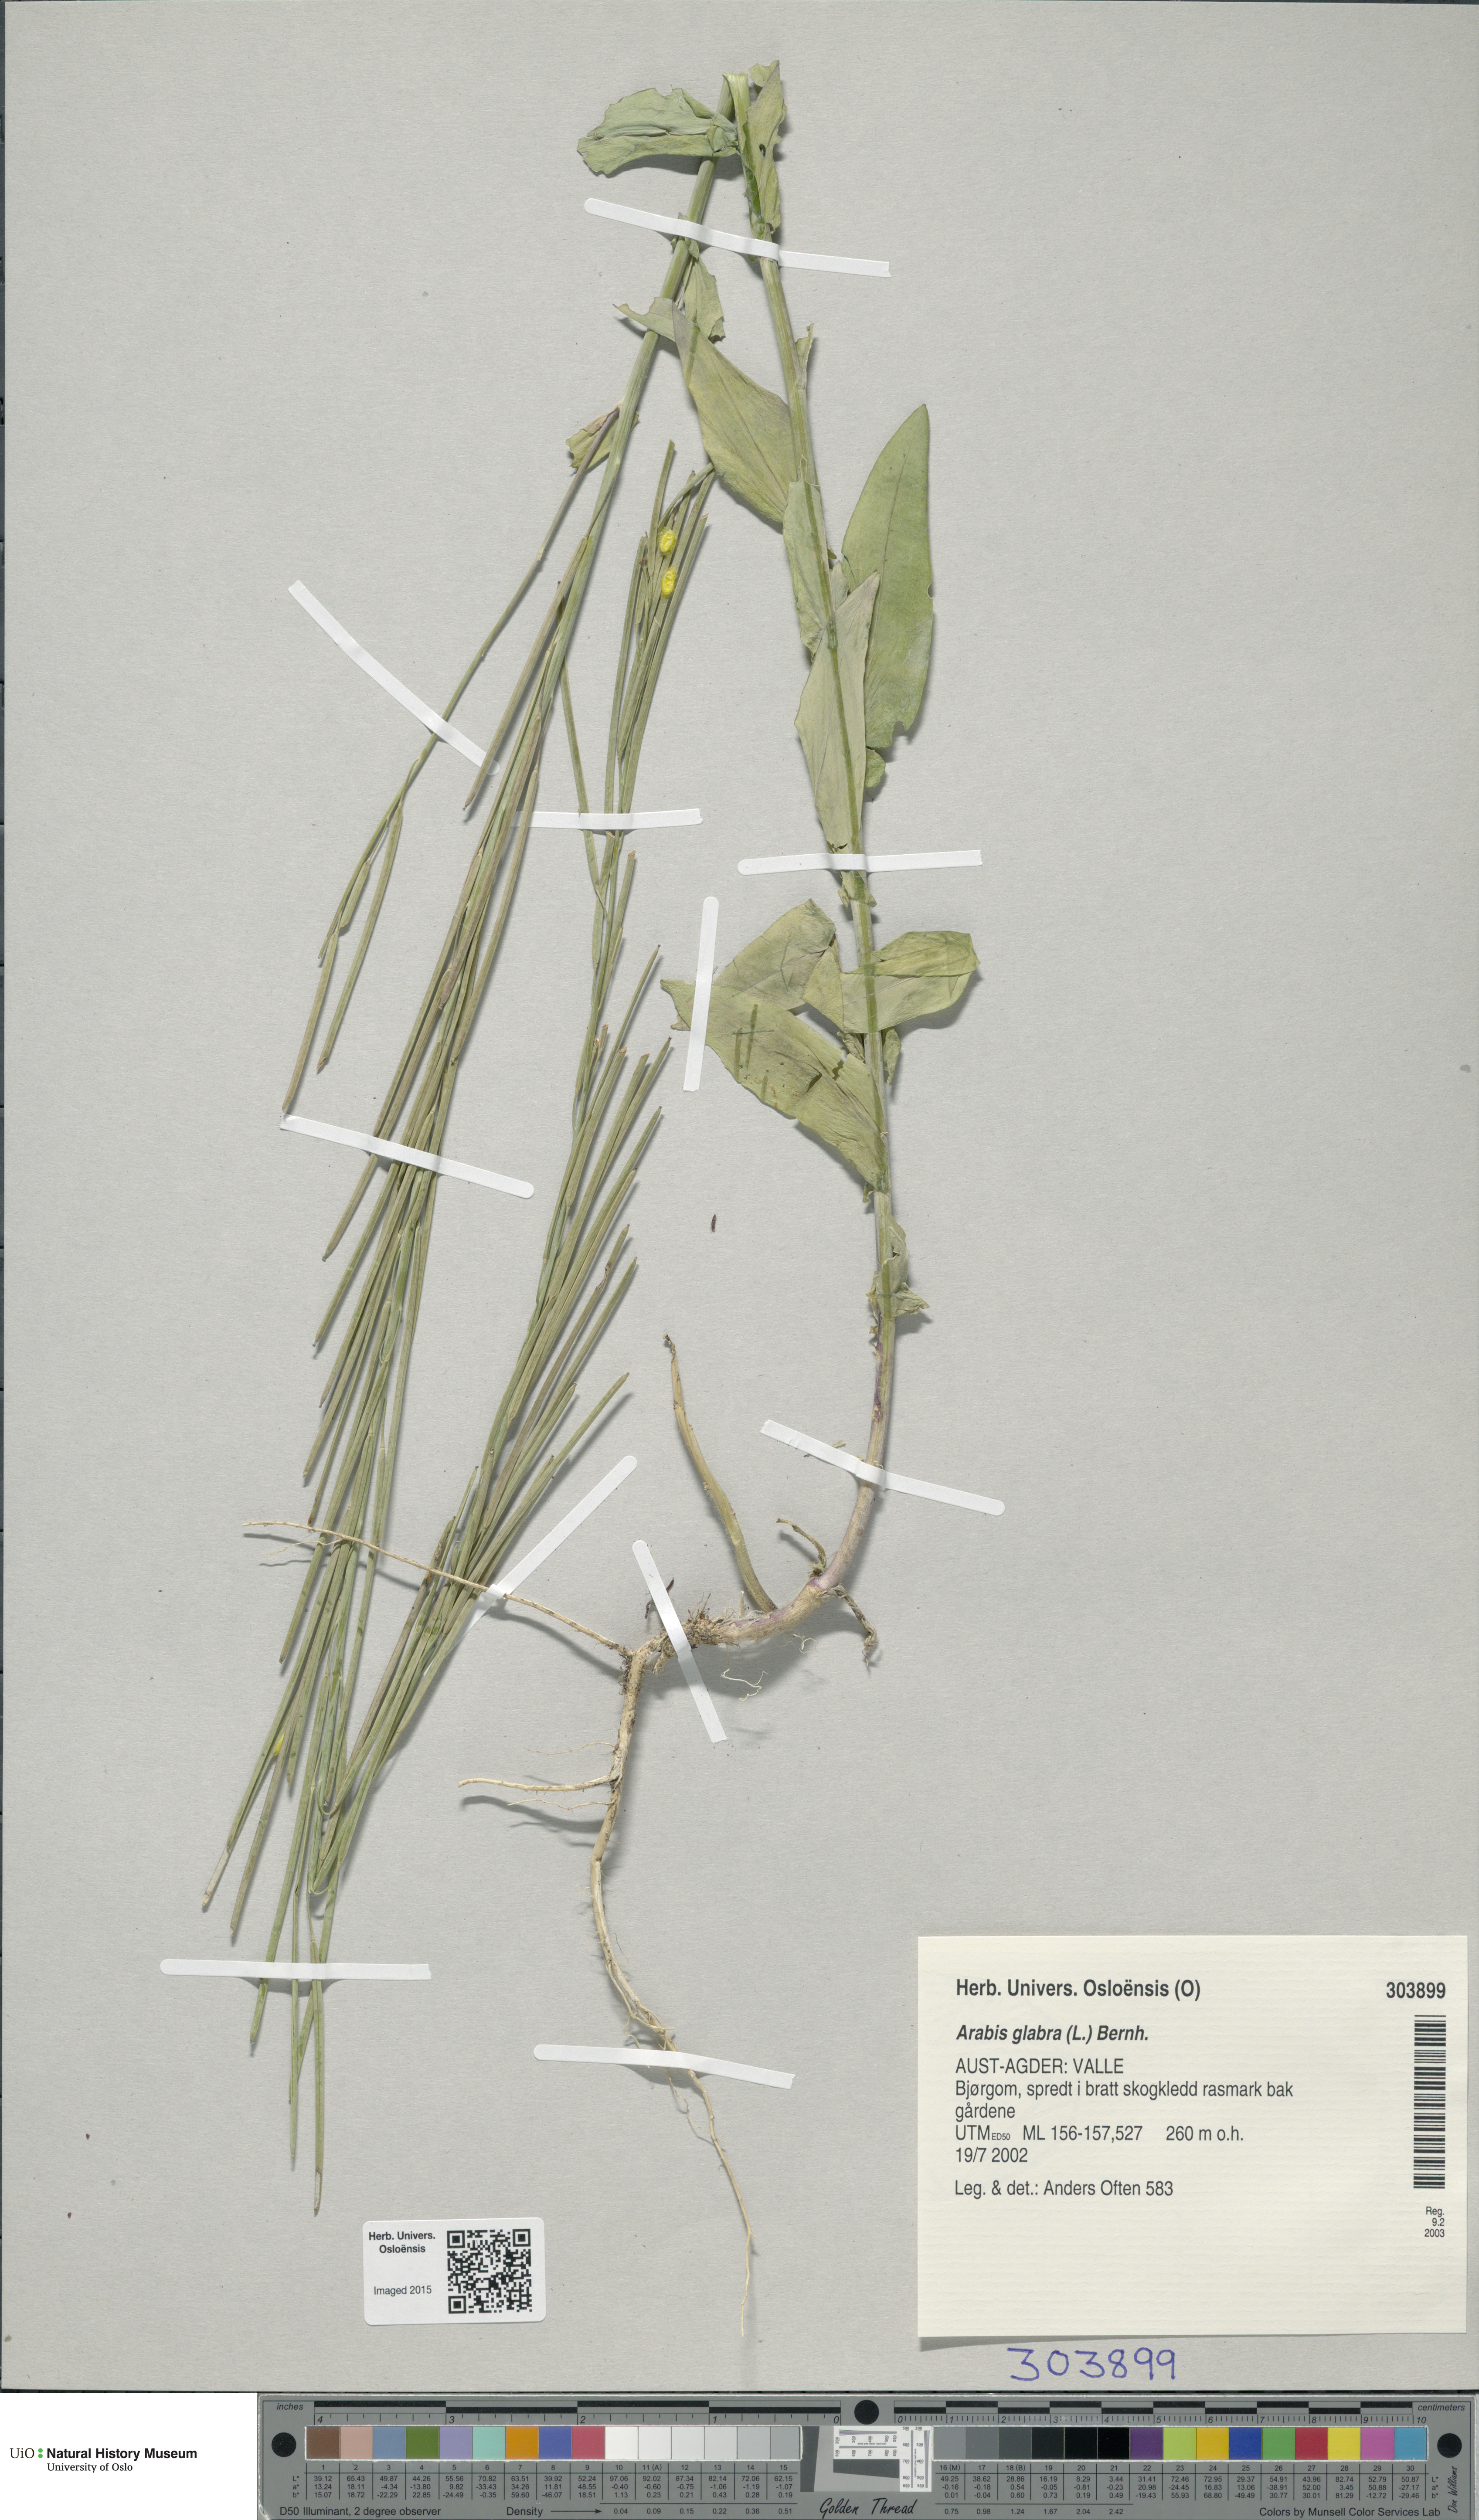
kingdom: Plantae
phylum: Tracheophyta
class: Magnoliopsida
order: Brassicales
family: Brassicaceae
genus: Turritis
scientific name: Turritis glabra
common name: Tower rockcress
